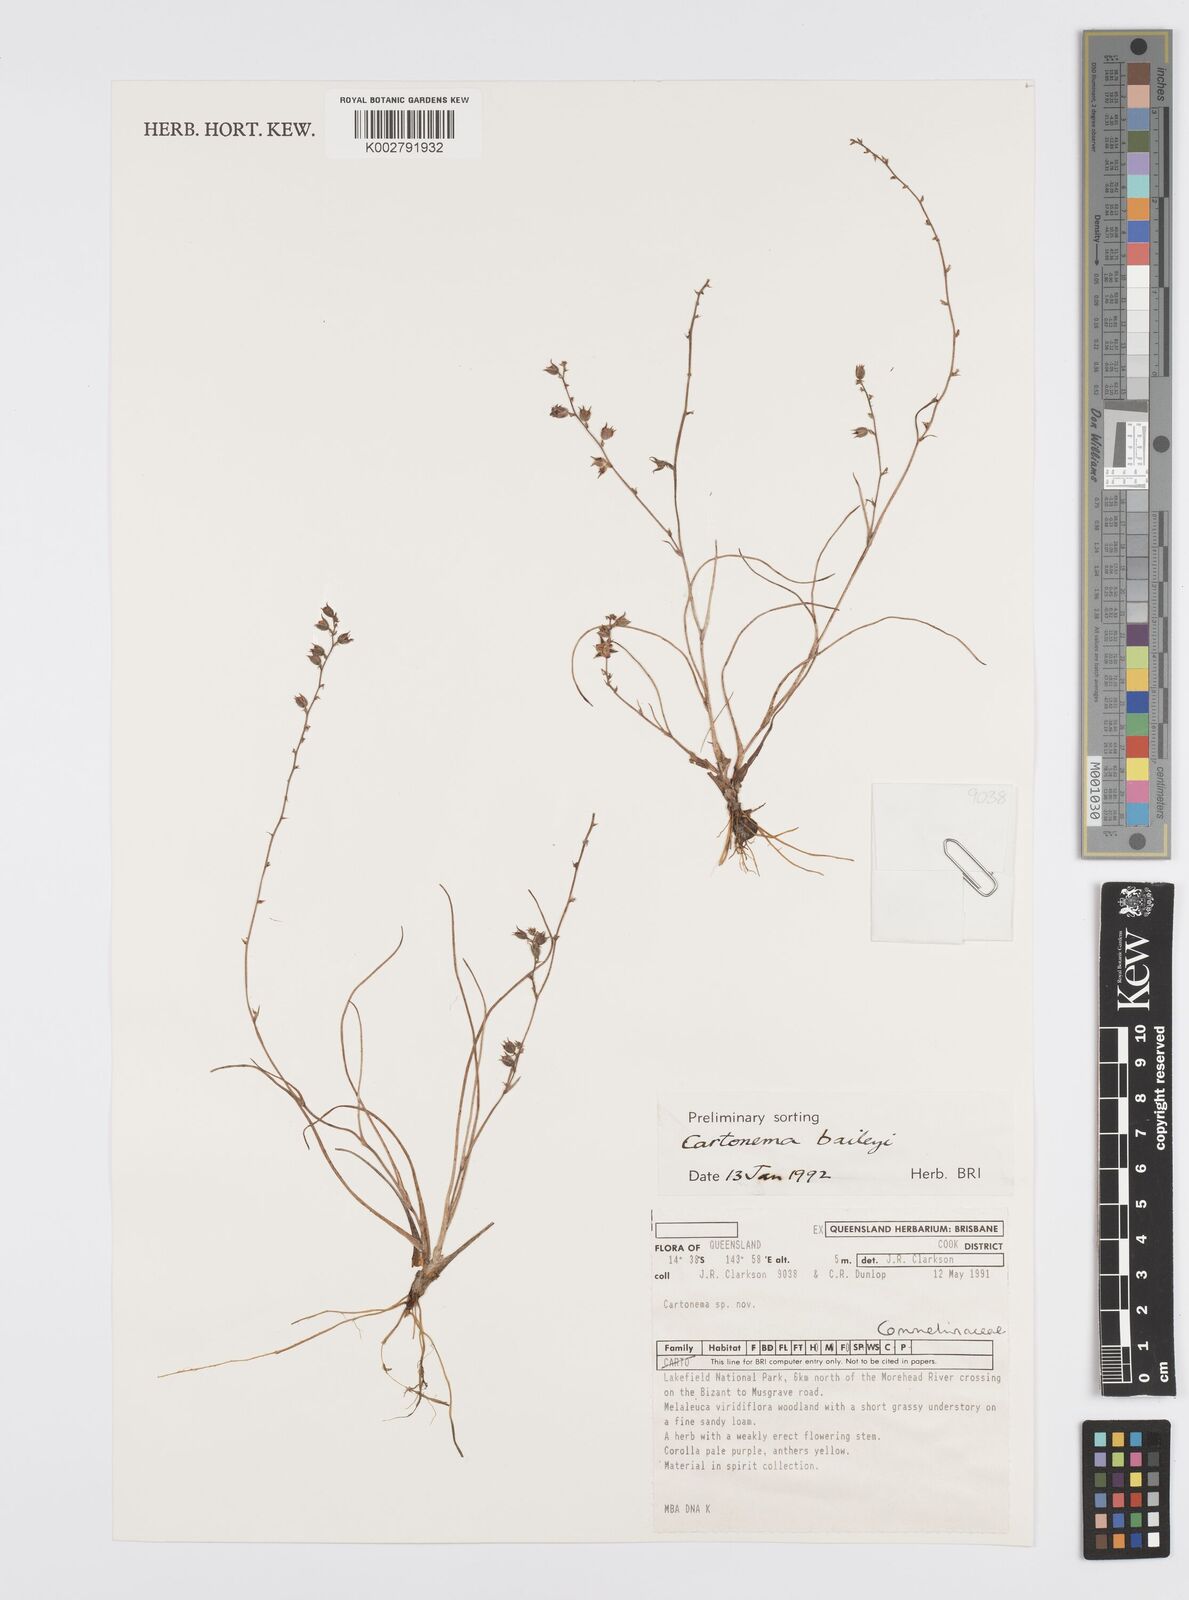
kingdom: Plantae
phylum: Tracheophyta
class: Liliopsida
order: Commelinales
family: Commelinaceae
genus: Cartonema
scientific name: Cartonema baileyi
